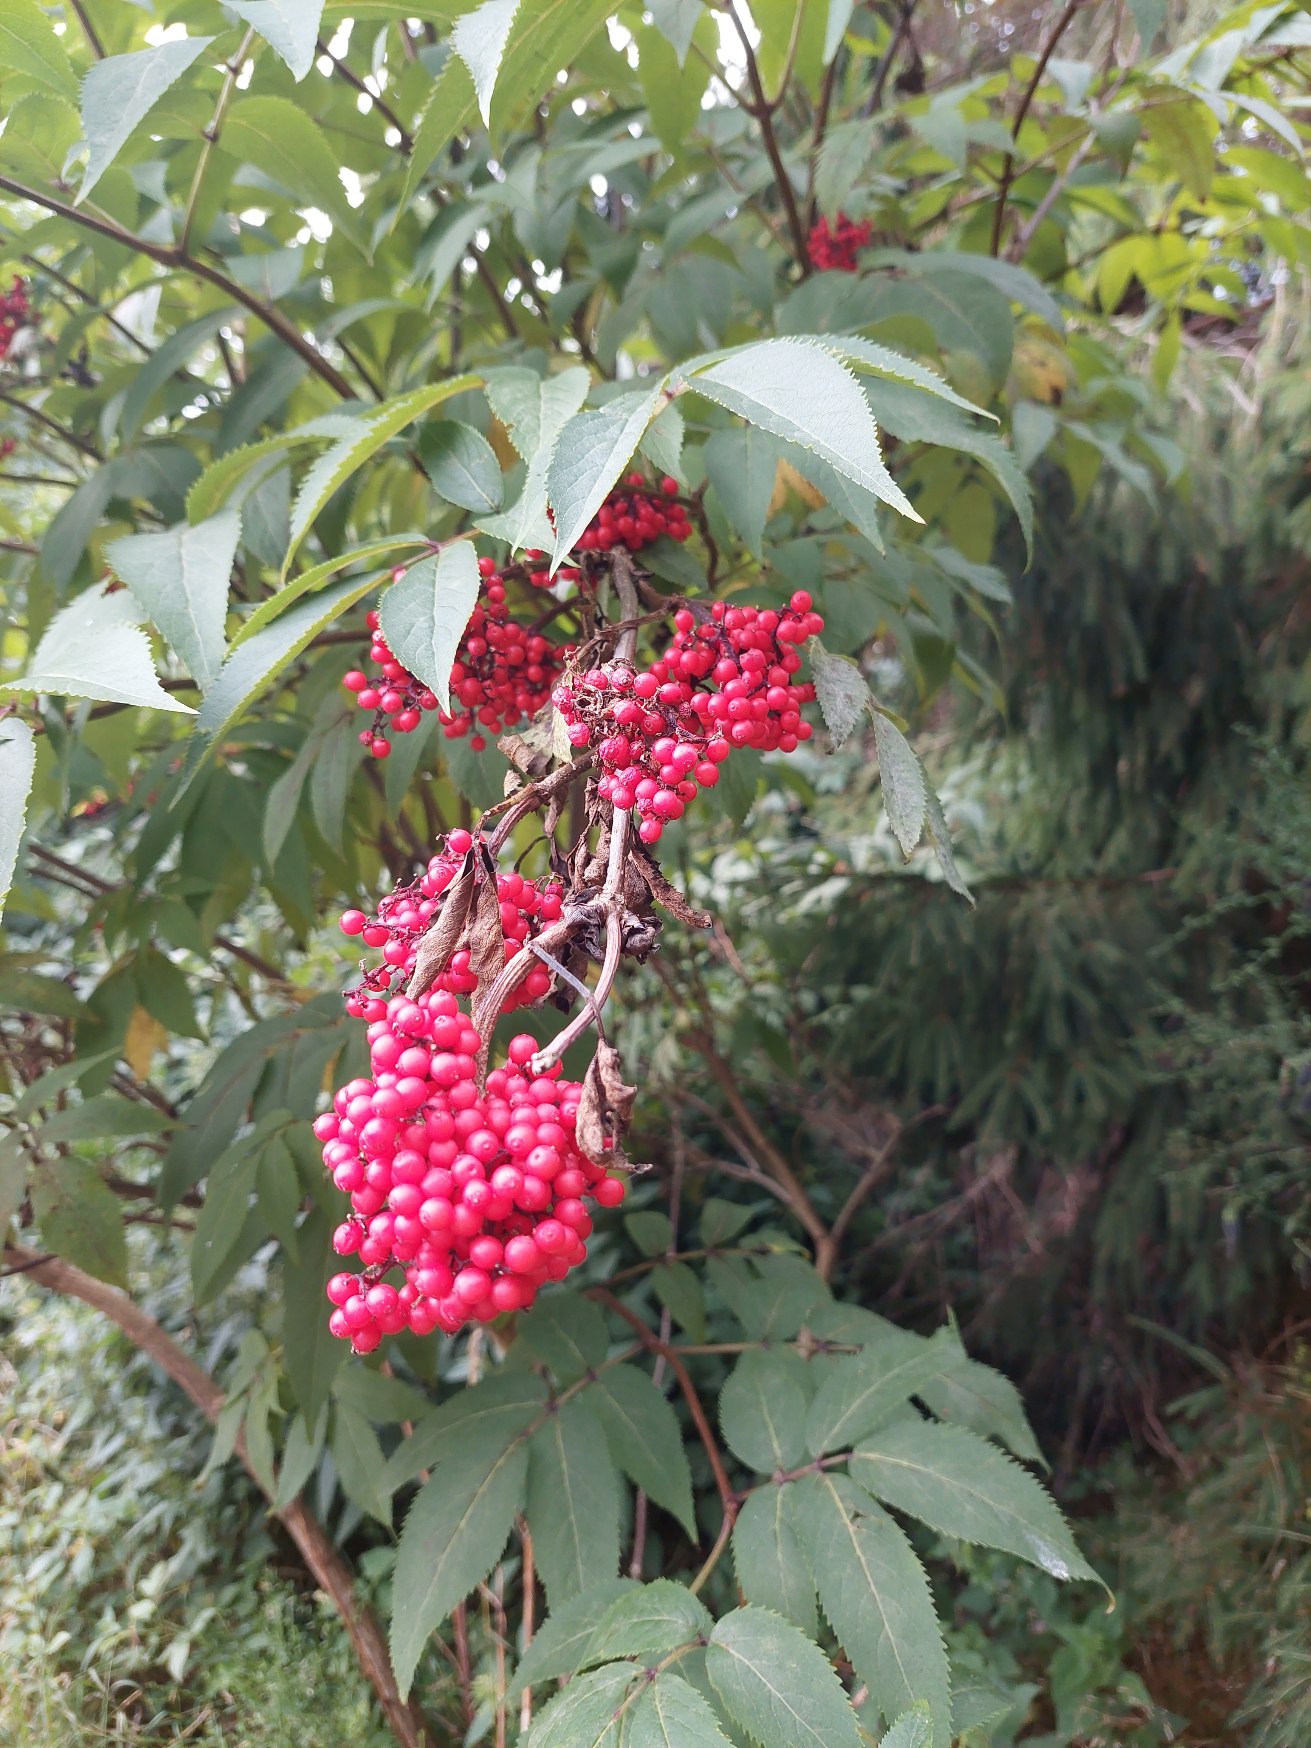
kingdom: Plantae
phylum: Tracheophyta
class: Magnoliopsida
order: Dipsacales
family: Viburnaceae
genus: Sambucus
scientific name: Sambucus racemosa
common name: Drue-hyld
